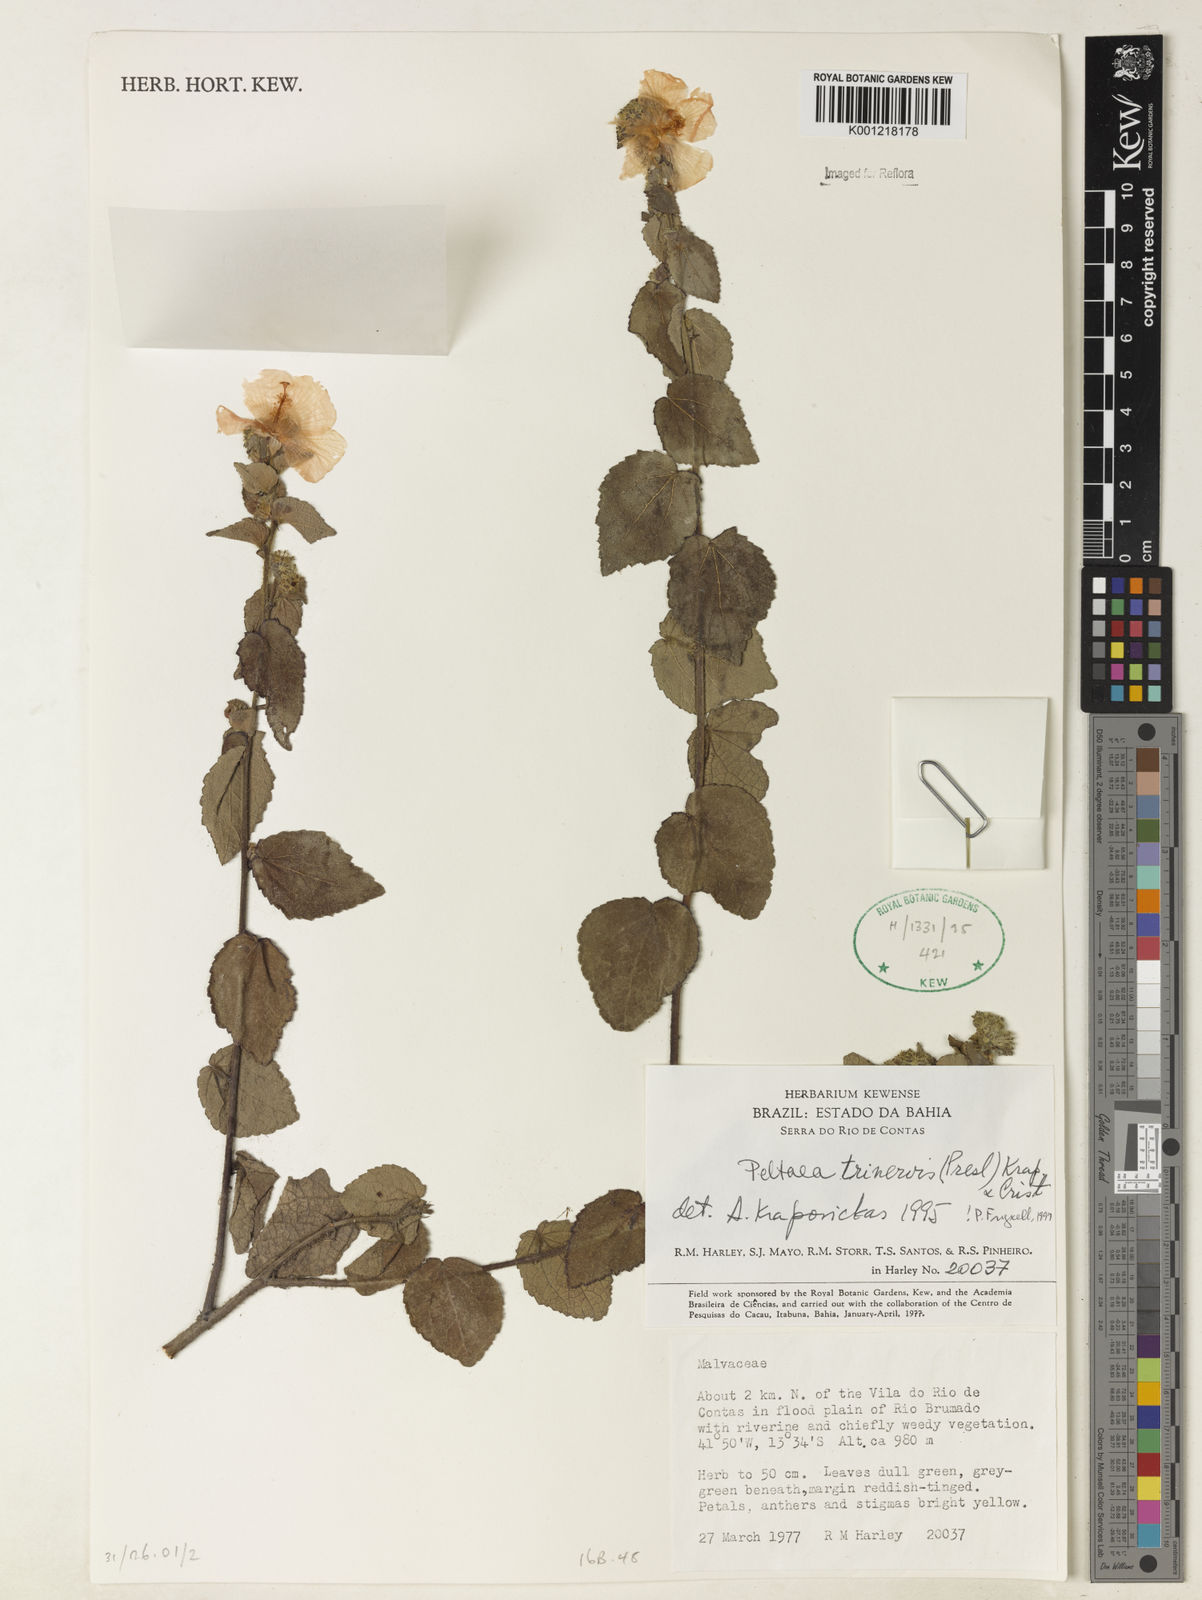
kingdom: Plantae
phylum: Tracheophyta
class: Magnoliopsida
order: Malvales
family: Malvaceae
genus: Peltaea
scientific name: Peltaea
